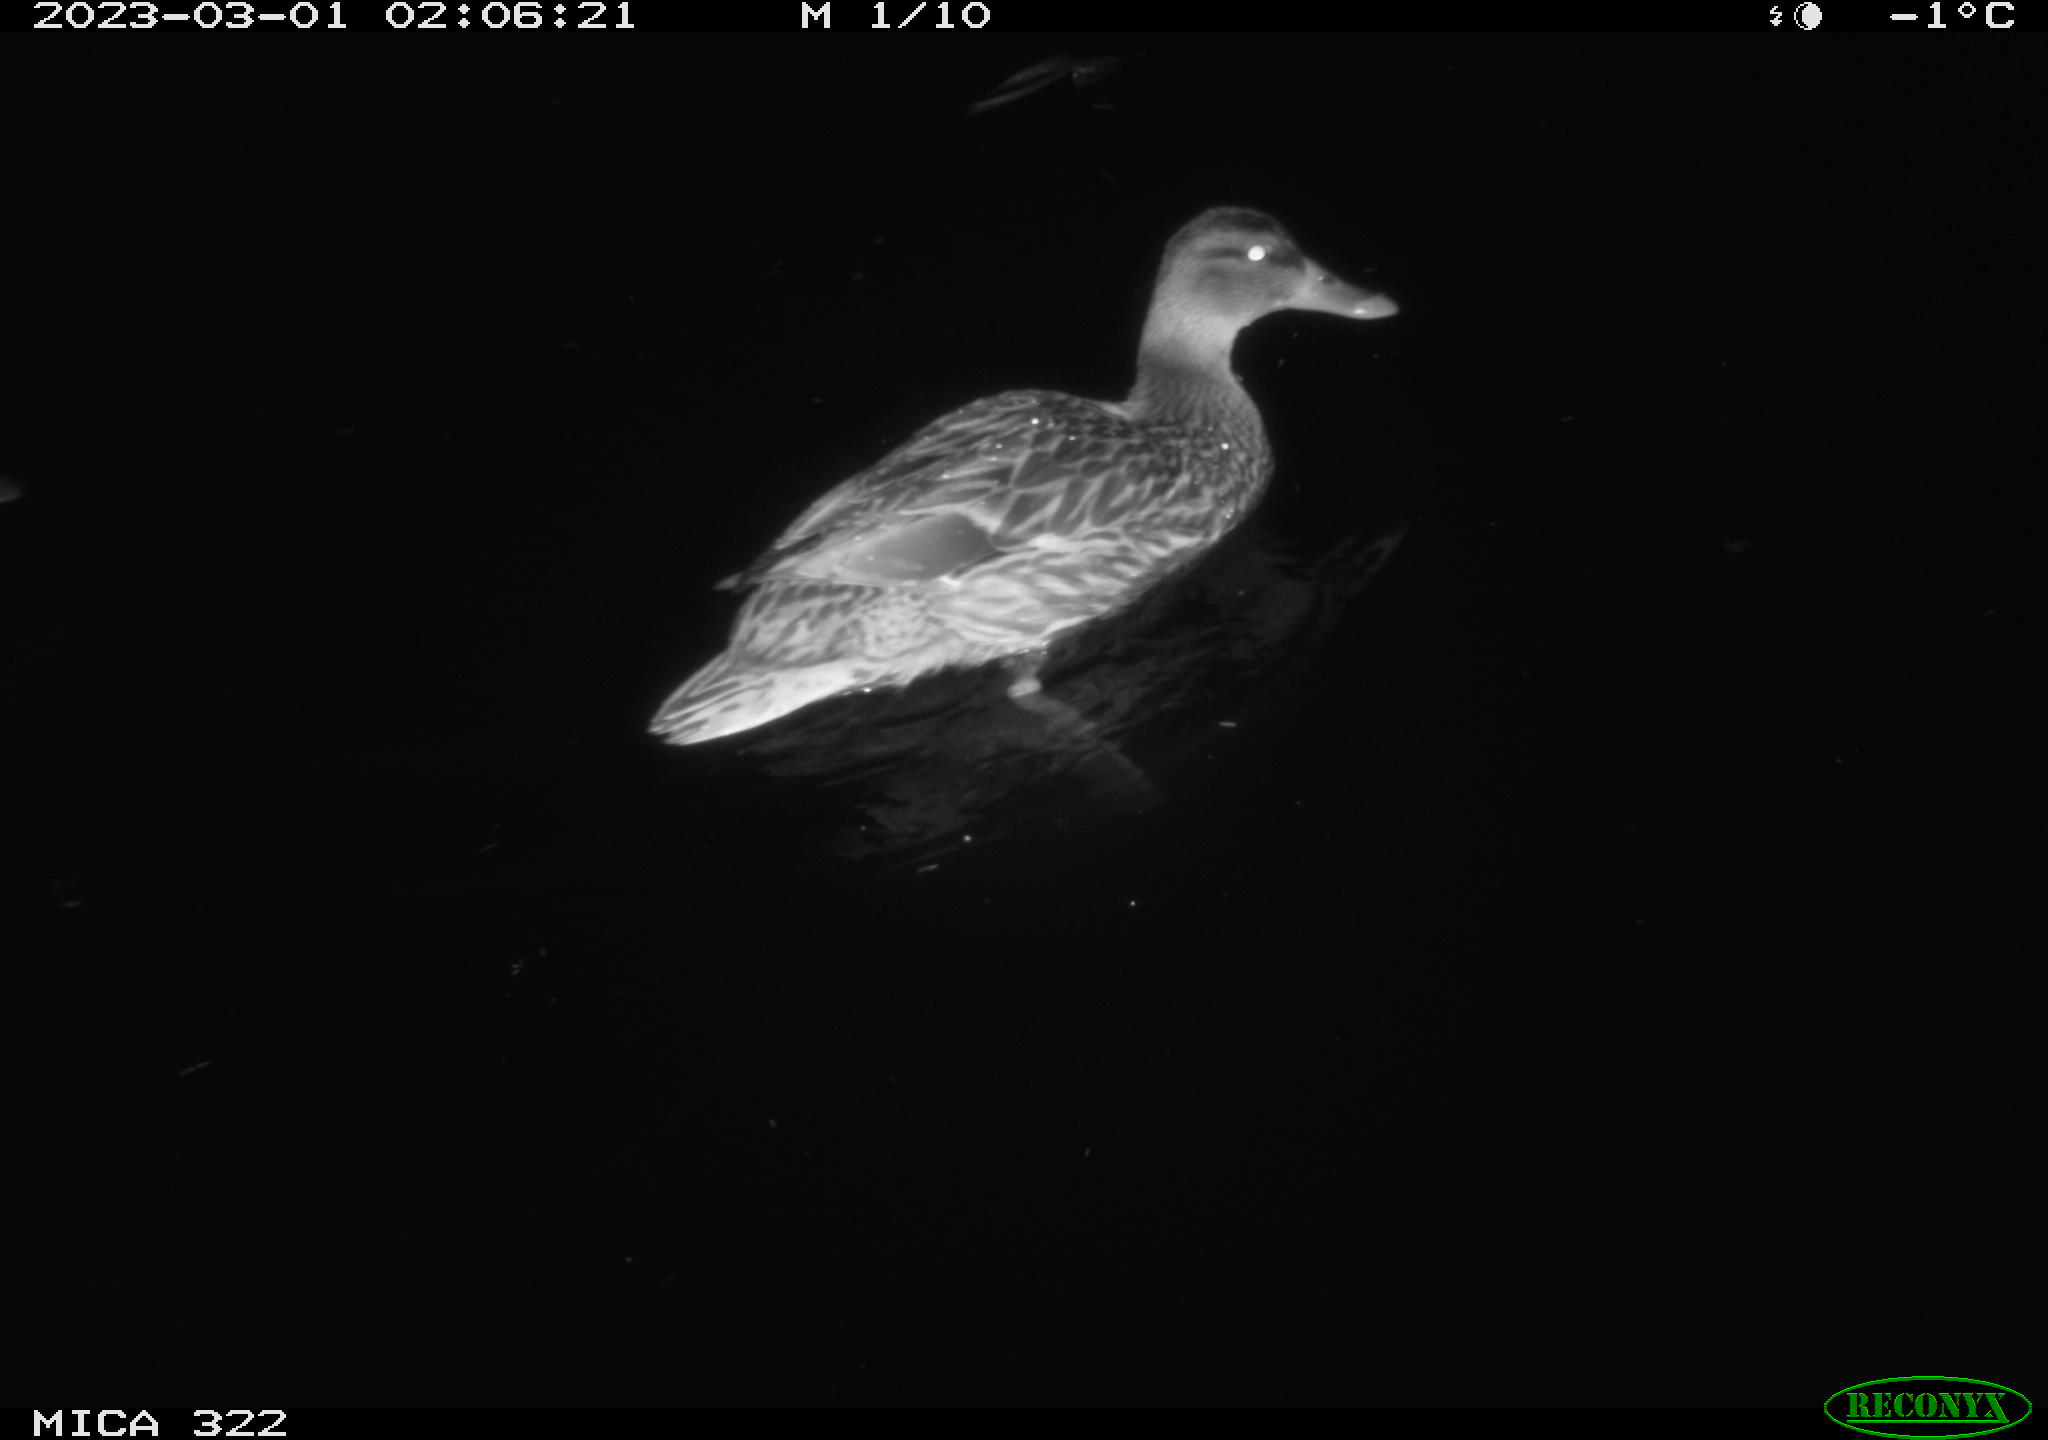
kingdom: Animalia
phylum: Chordata
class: Aves
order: Anseriformes
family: Anatidae
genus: Anas
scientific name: Anas
